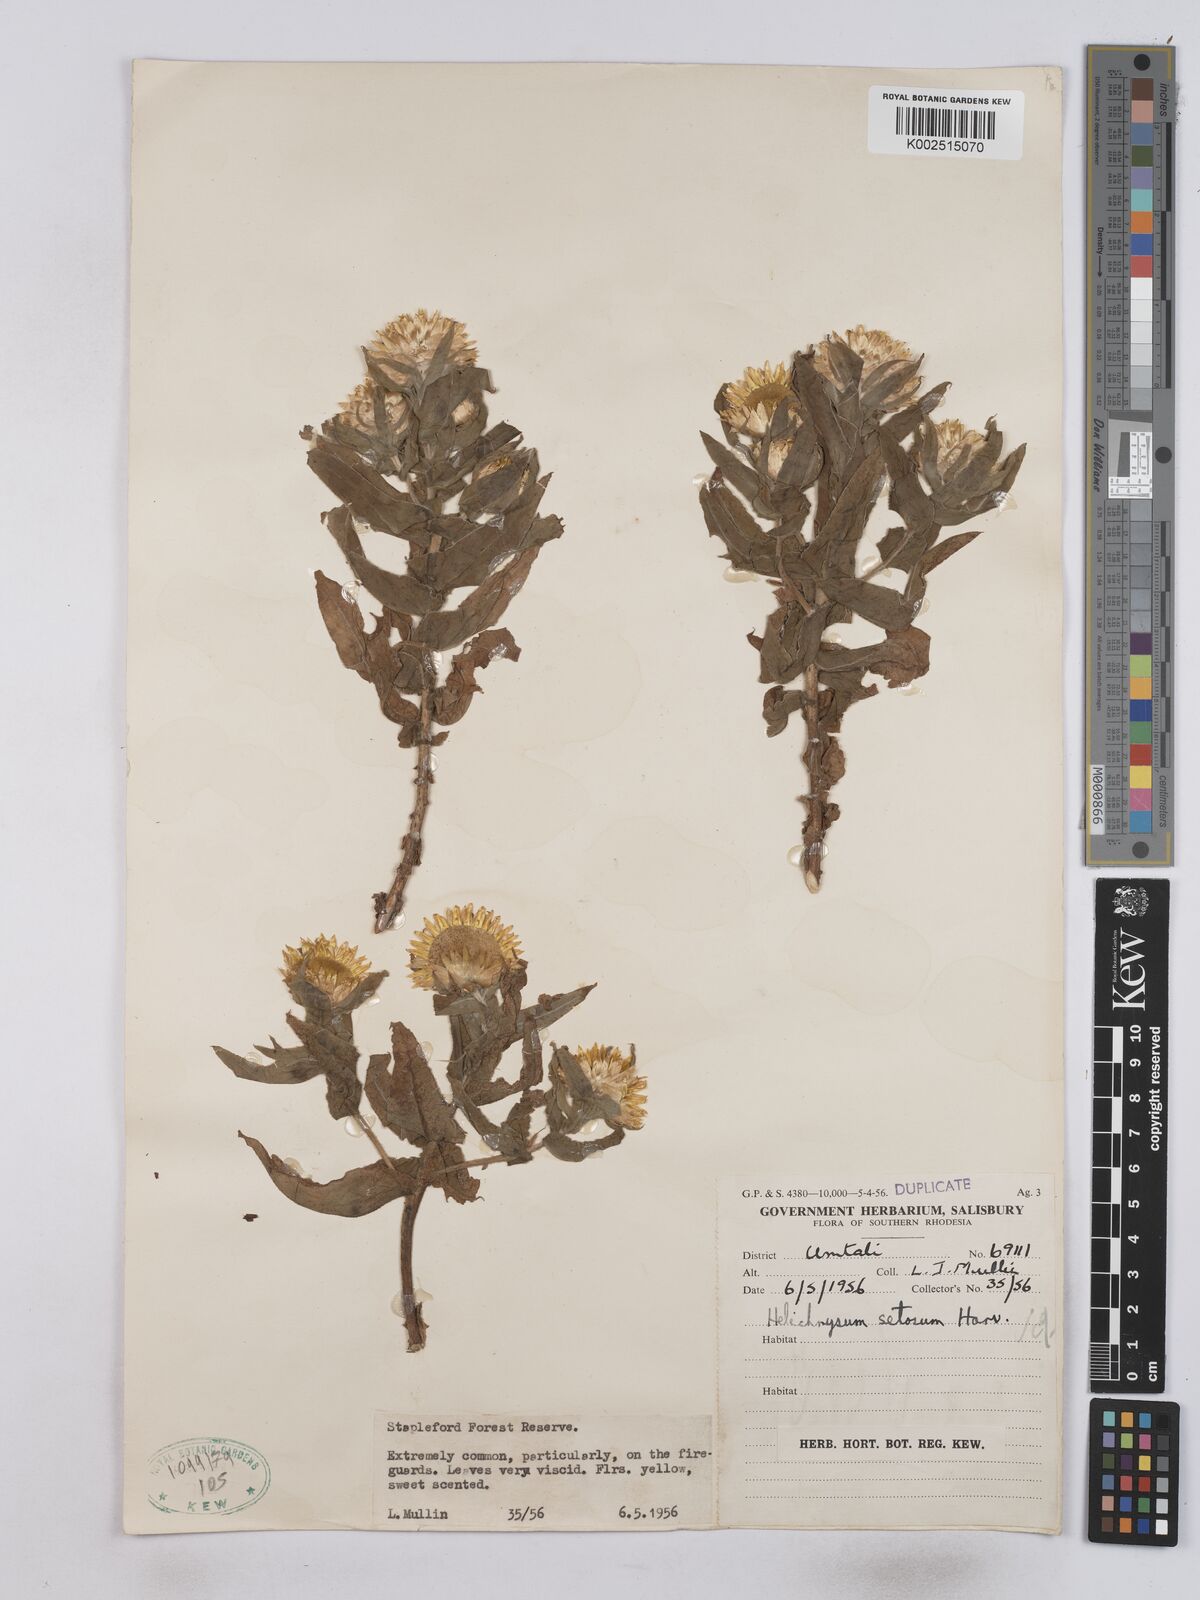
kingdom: Plantae
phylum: Tracheophyta
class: Magnoliopsida
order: Asterales
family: Asteraceae
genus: Helichrysum
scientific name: Helichrysum setosum
